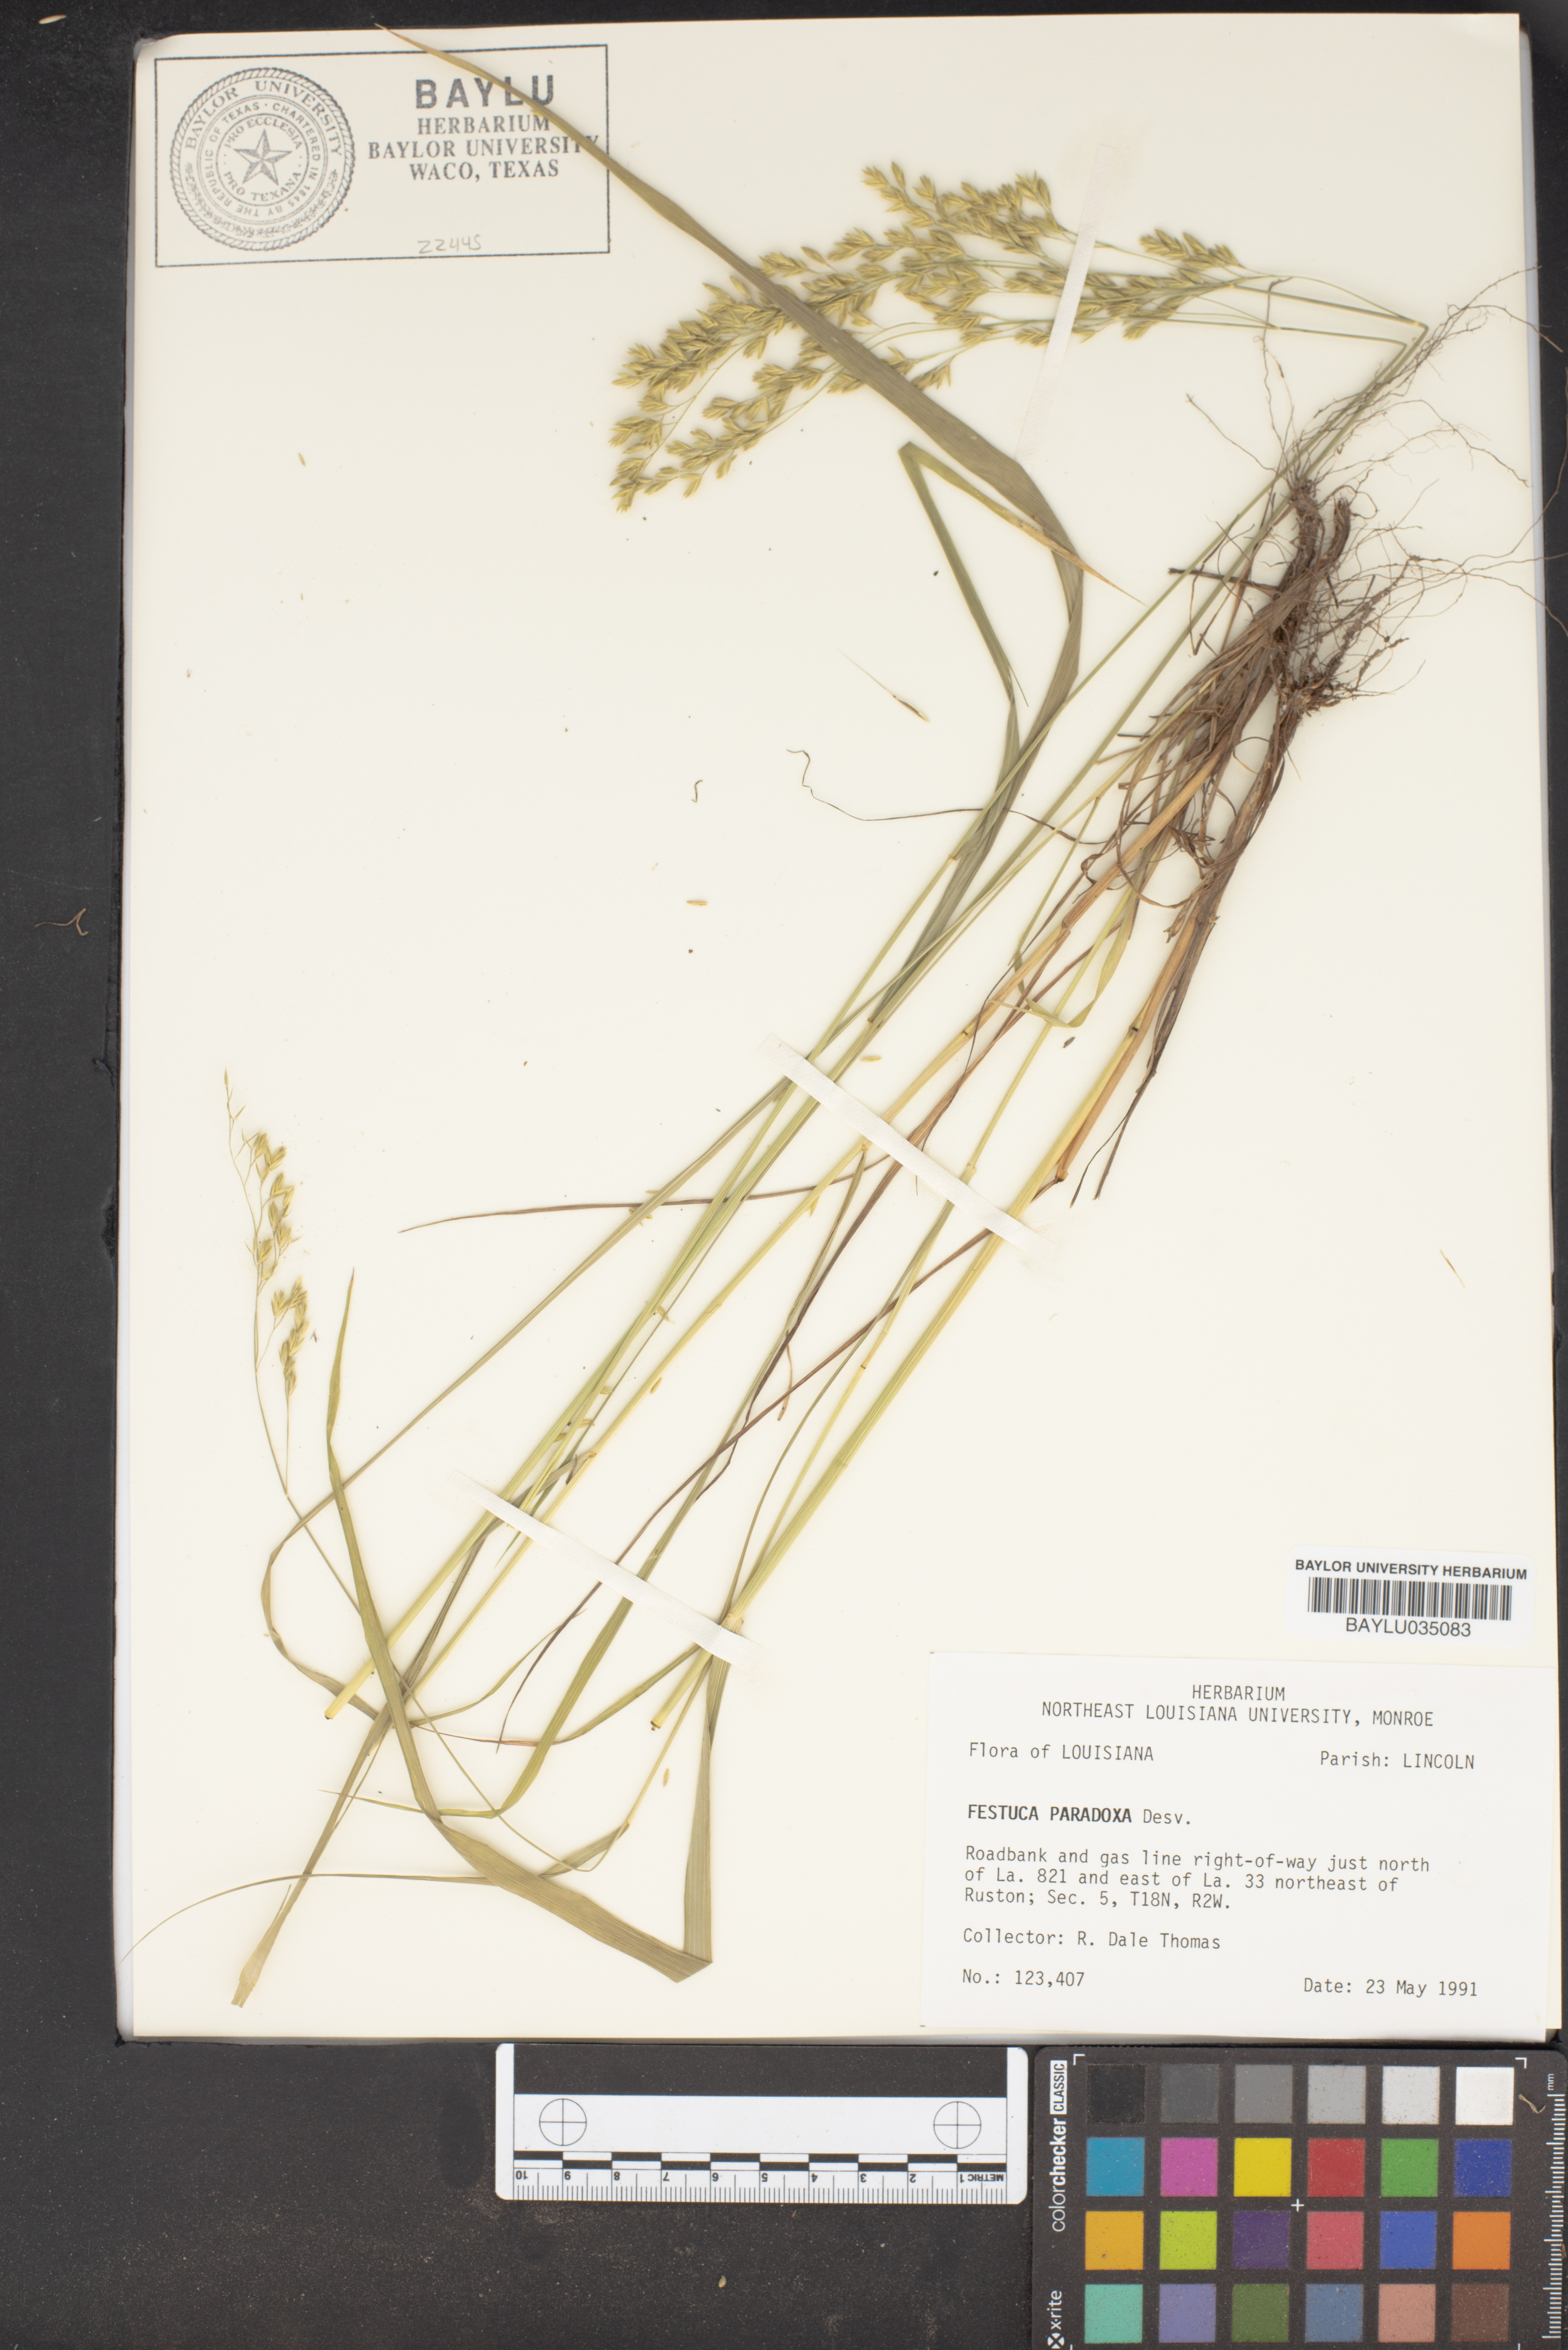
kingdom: Plantae
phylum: Tracheophyta
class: Liliopsida
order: Poales
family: Poaceae
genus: Festuca
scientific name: Festuca paradoxa
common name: Cluster fescue
